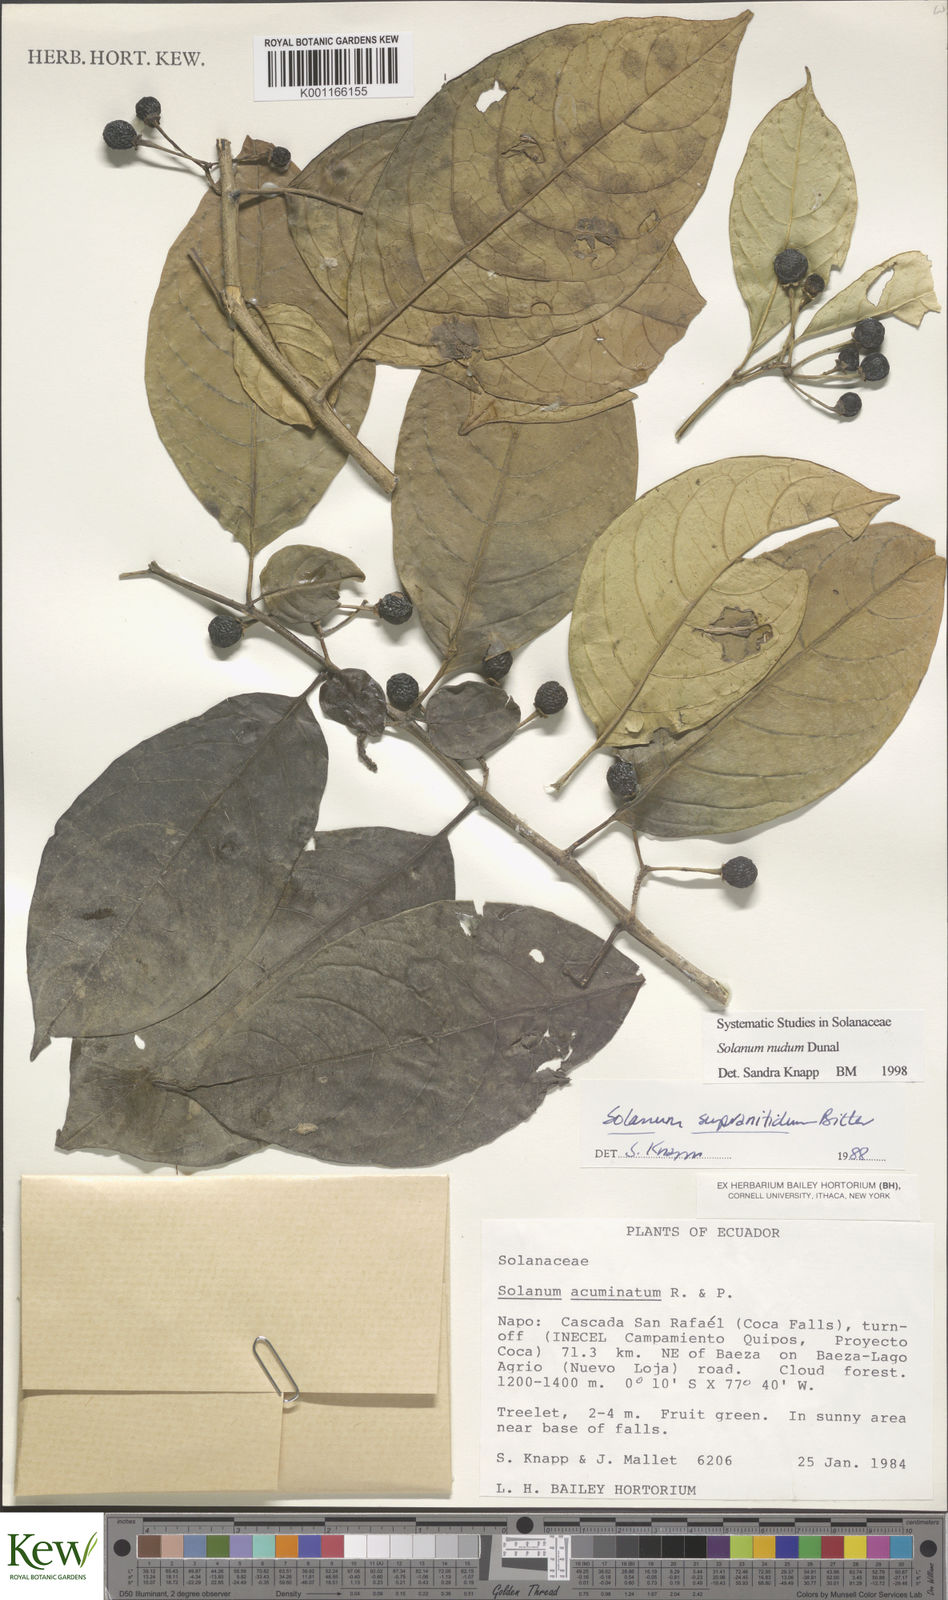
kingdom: Plantae
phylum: Tracheophyta
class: Magnoliopsida
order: Solanales
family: Solanaceae
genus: Solanum
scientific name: Solanum nudum
